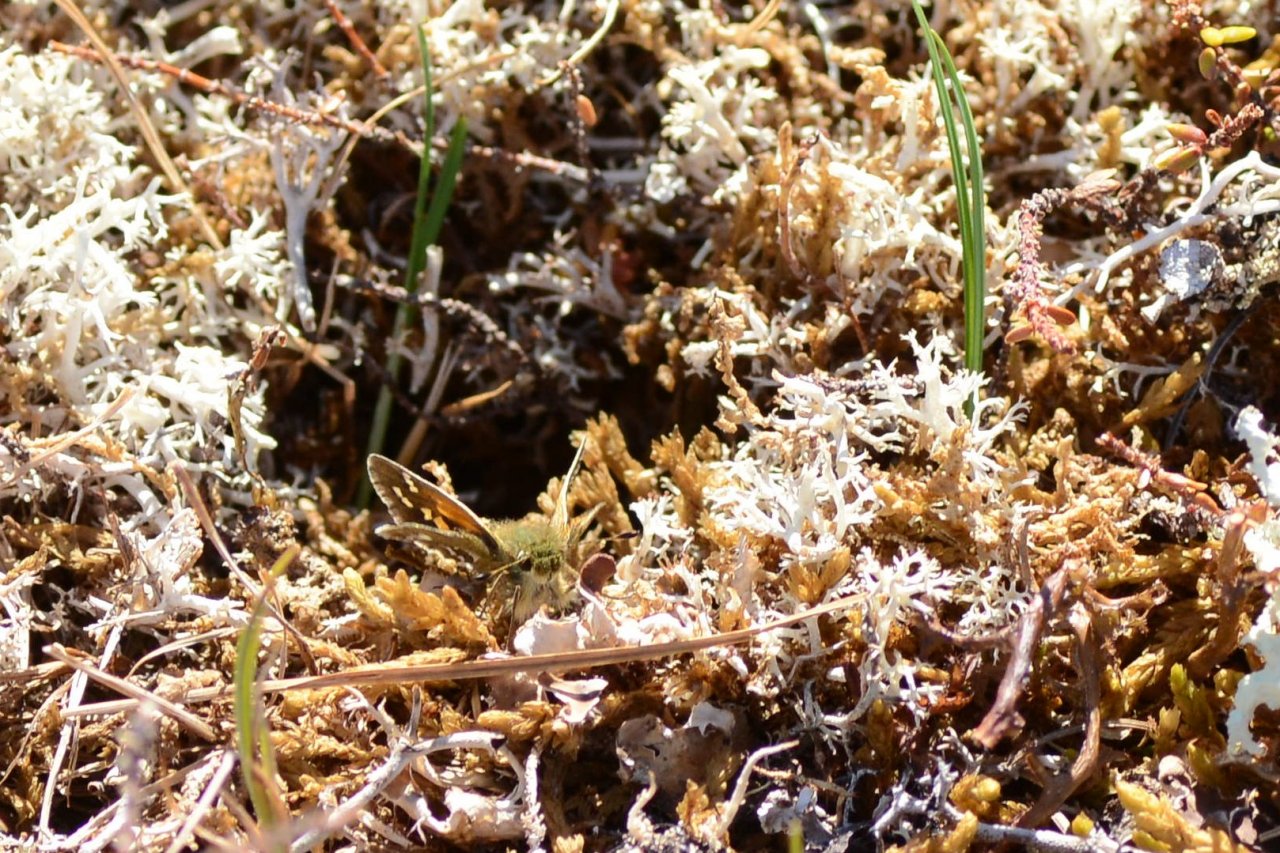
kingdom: Animalia
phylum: Arthropoda
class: Insecta
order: Lepidoptera
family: Hesperiidae
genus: Hesperia
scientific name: Hesperia comma
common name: Common Branded Skipper
